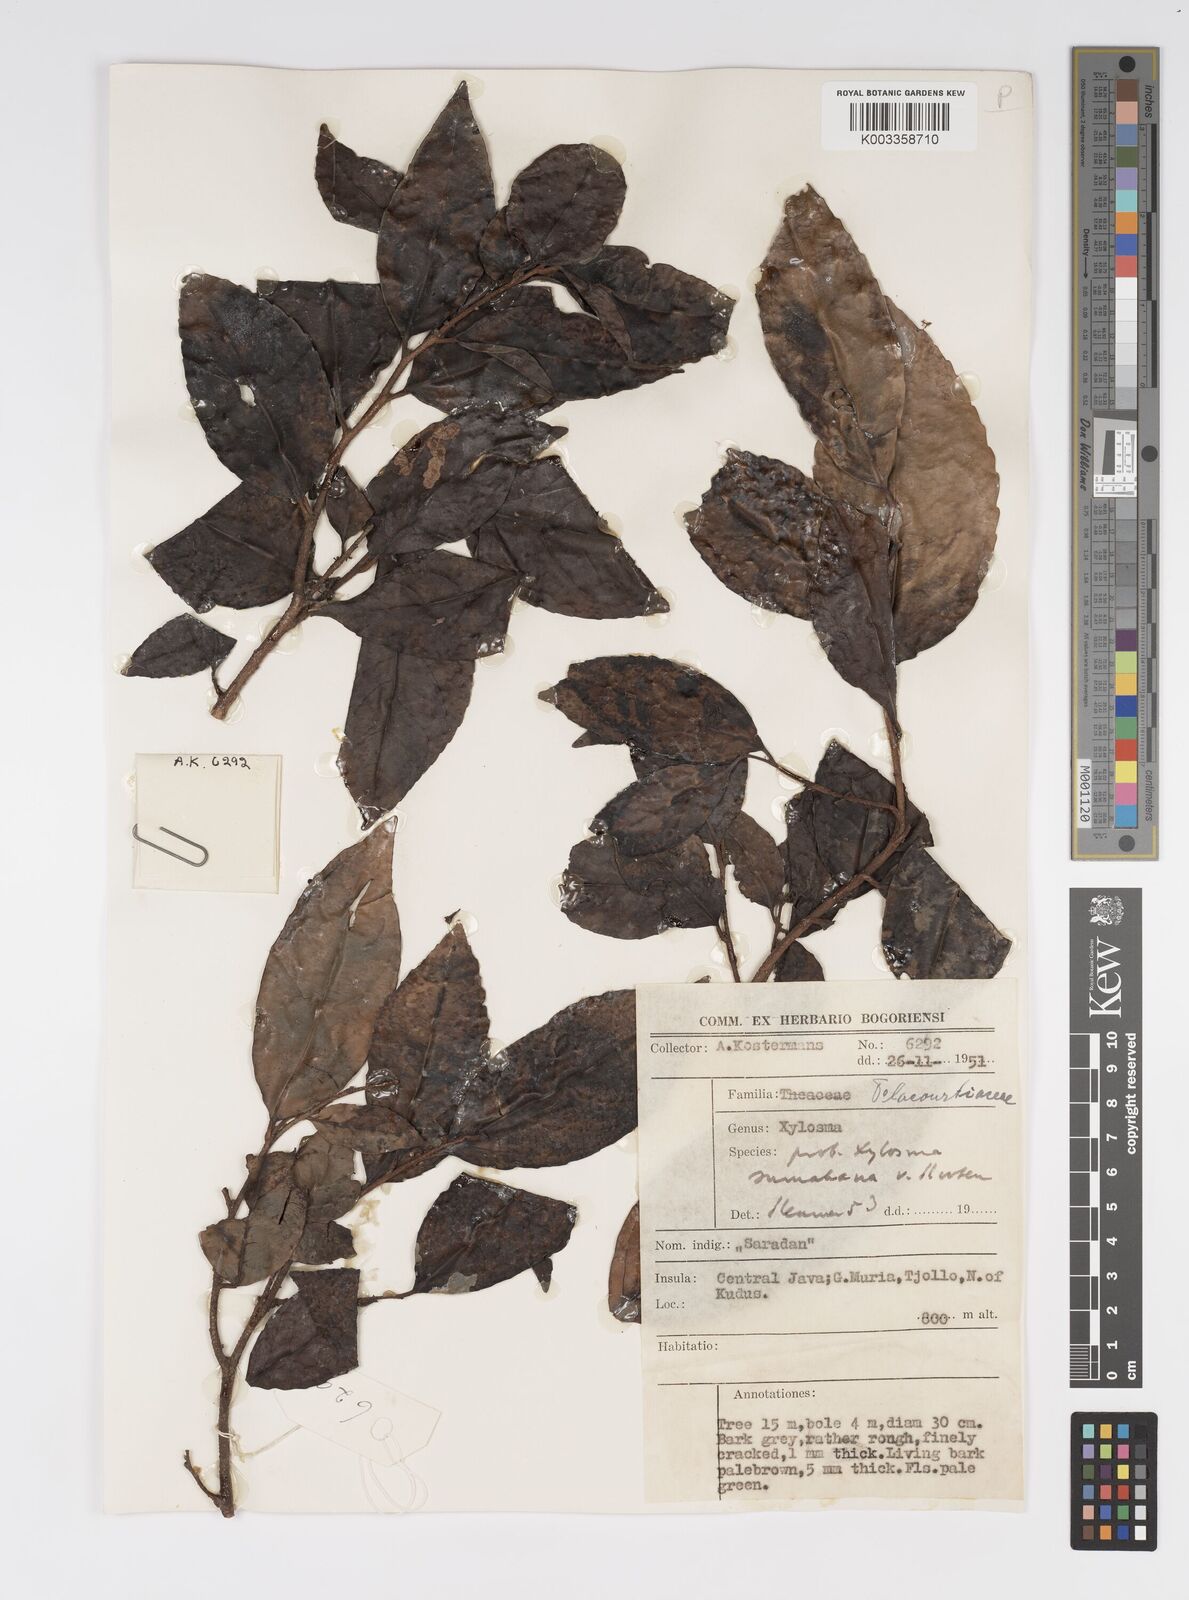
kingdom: Plantae
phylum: Tracheophyta
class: Magnoliopsida
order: Malpighiales
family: Salicaceae
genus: Xylosma
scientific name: Xylosma sumatrana
